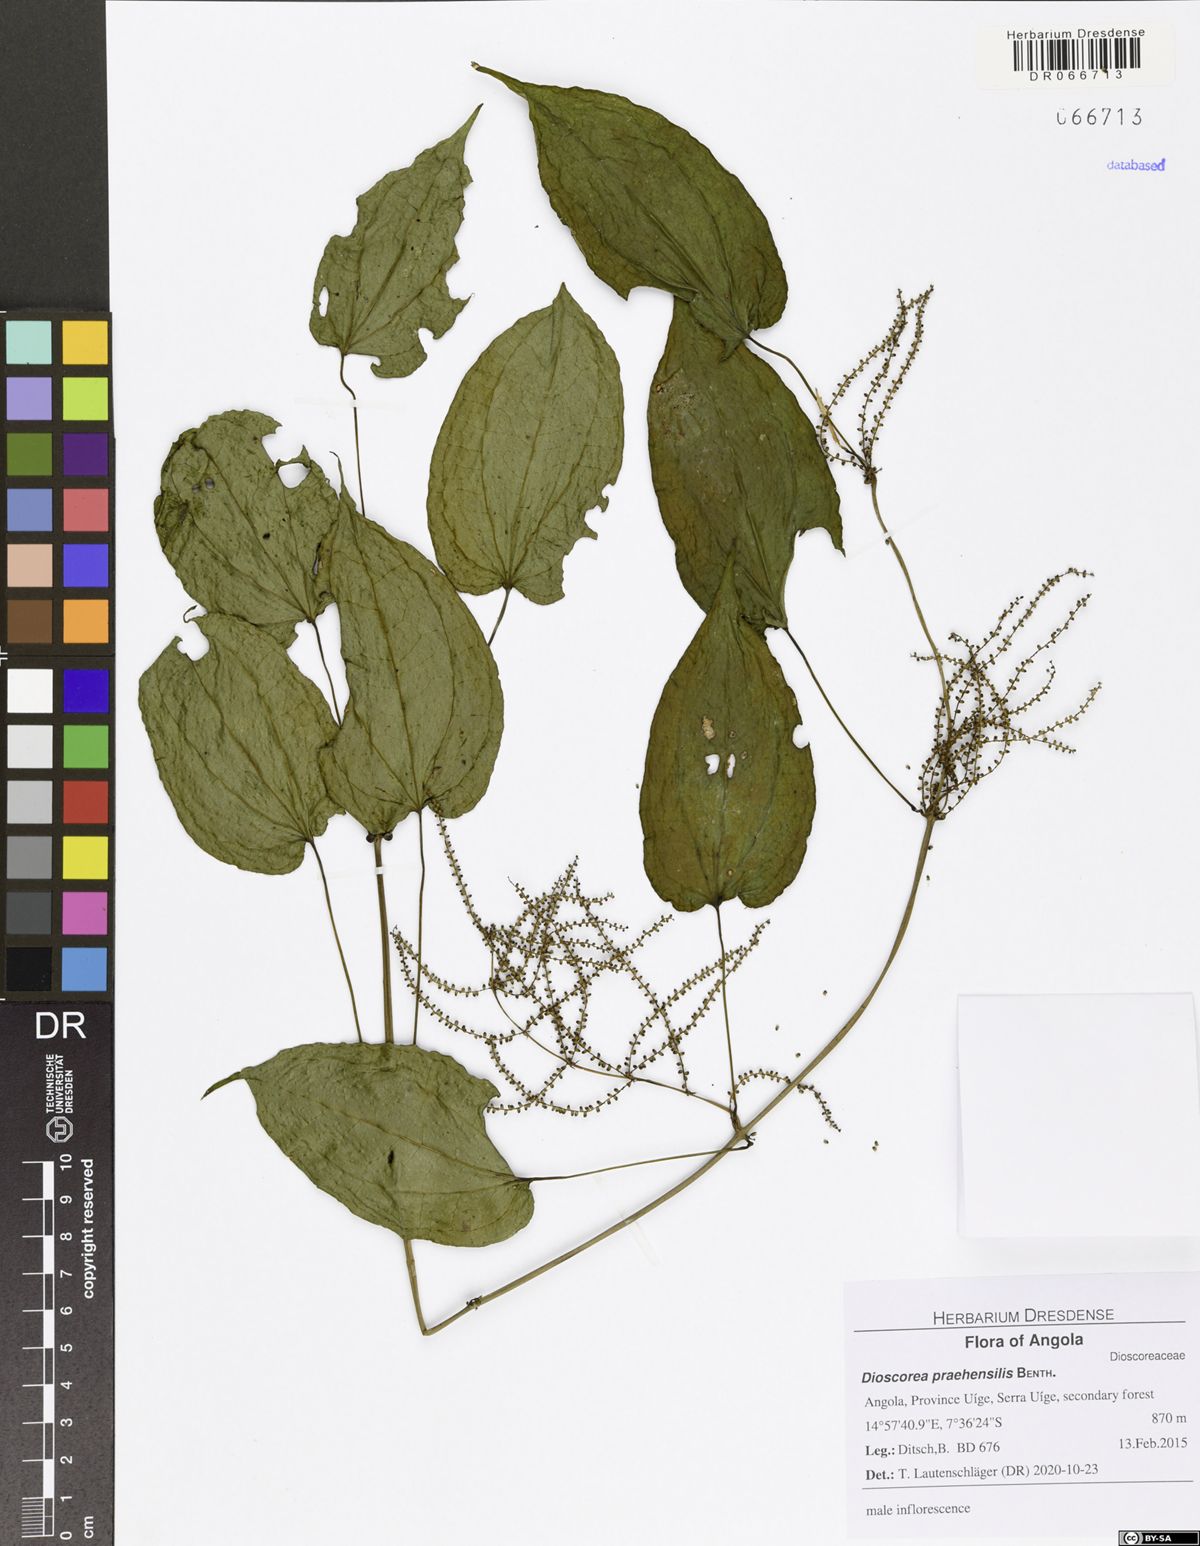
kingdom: Plantae
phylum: Tracheophyta
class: Liliopsida
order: Dioscoreales
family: Dioscoreaceae
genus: Dioscorea
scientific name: Dioscorea praehensilis
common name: Bush yam
